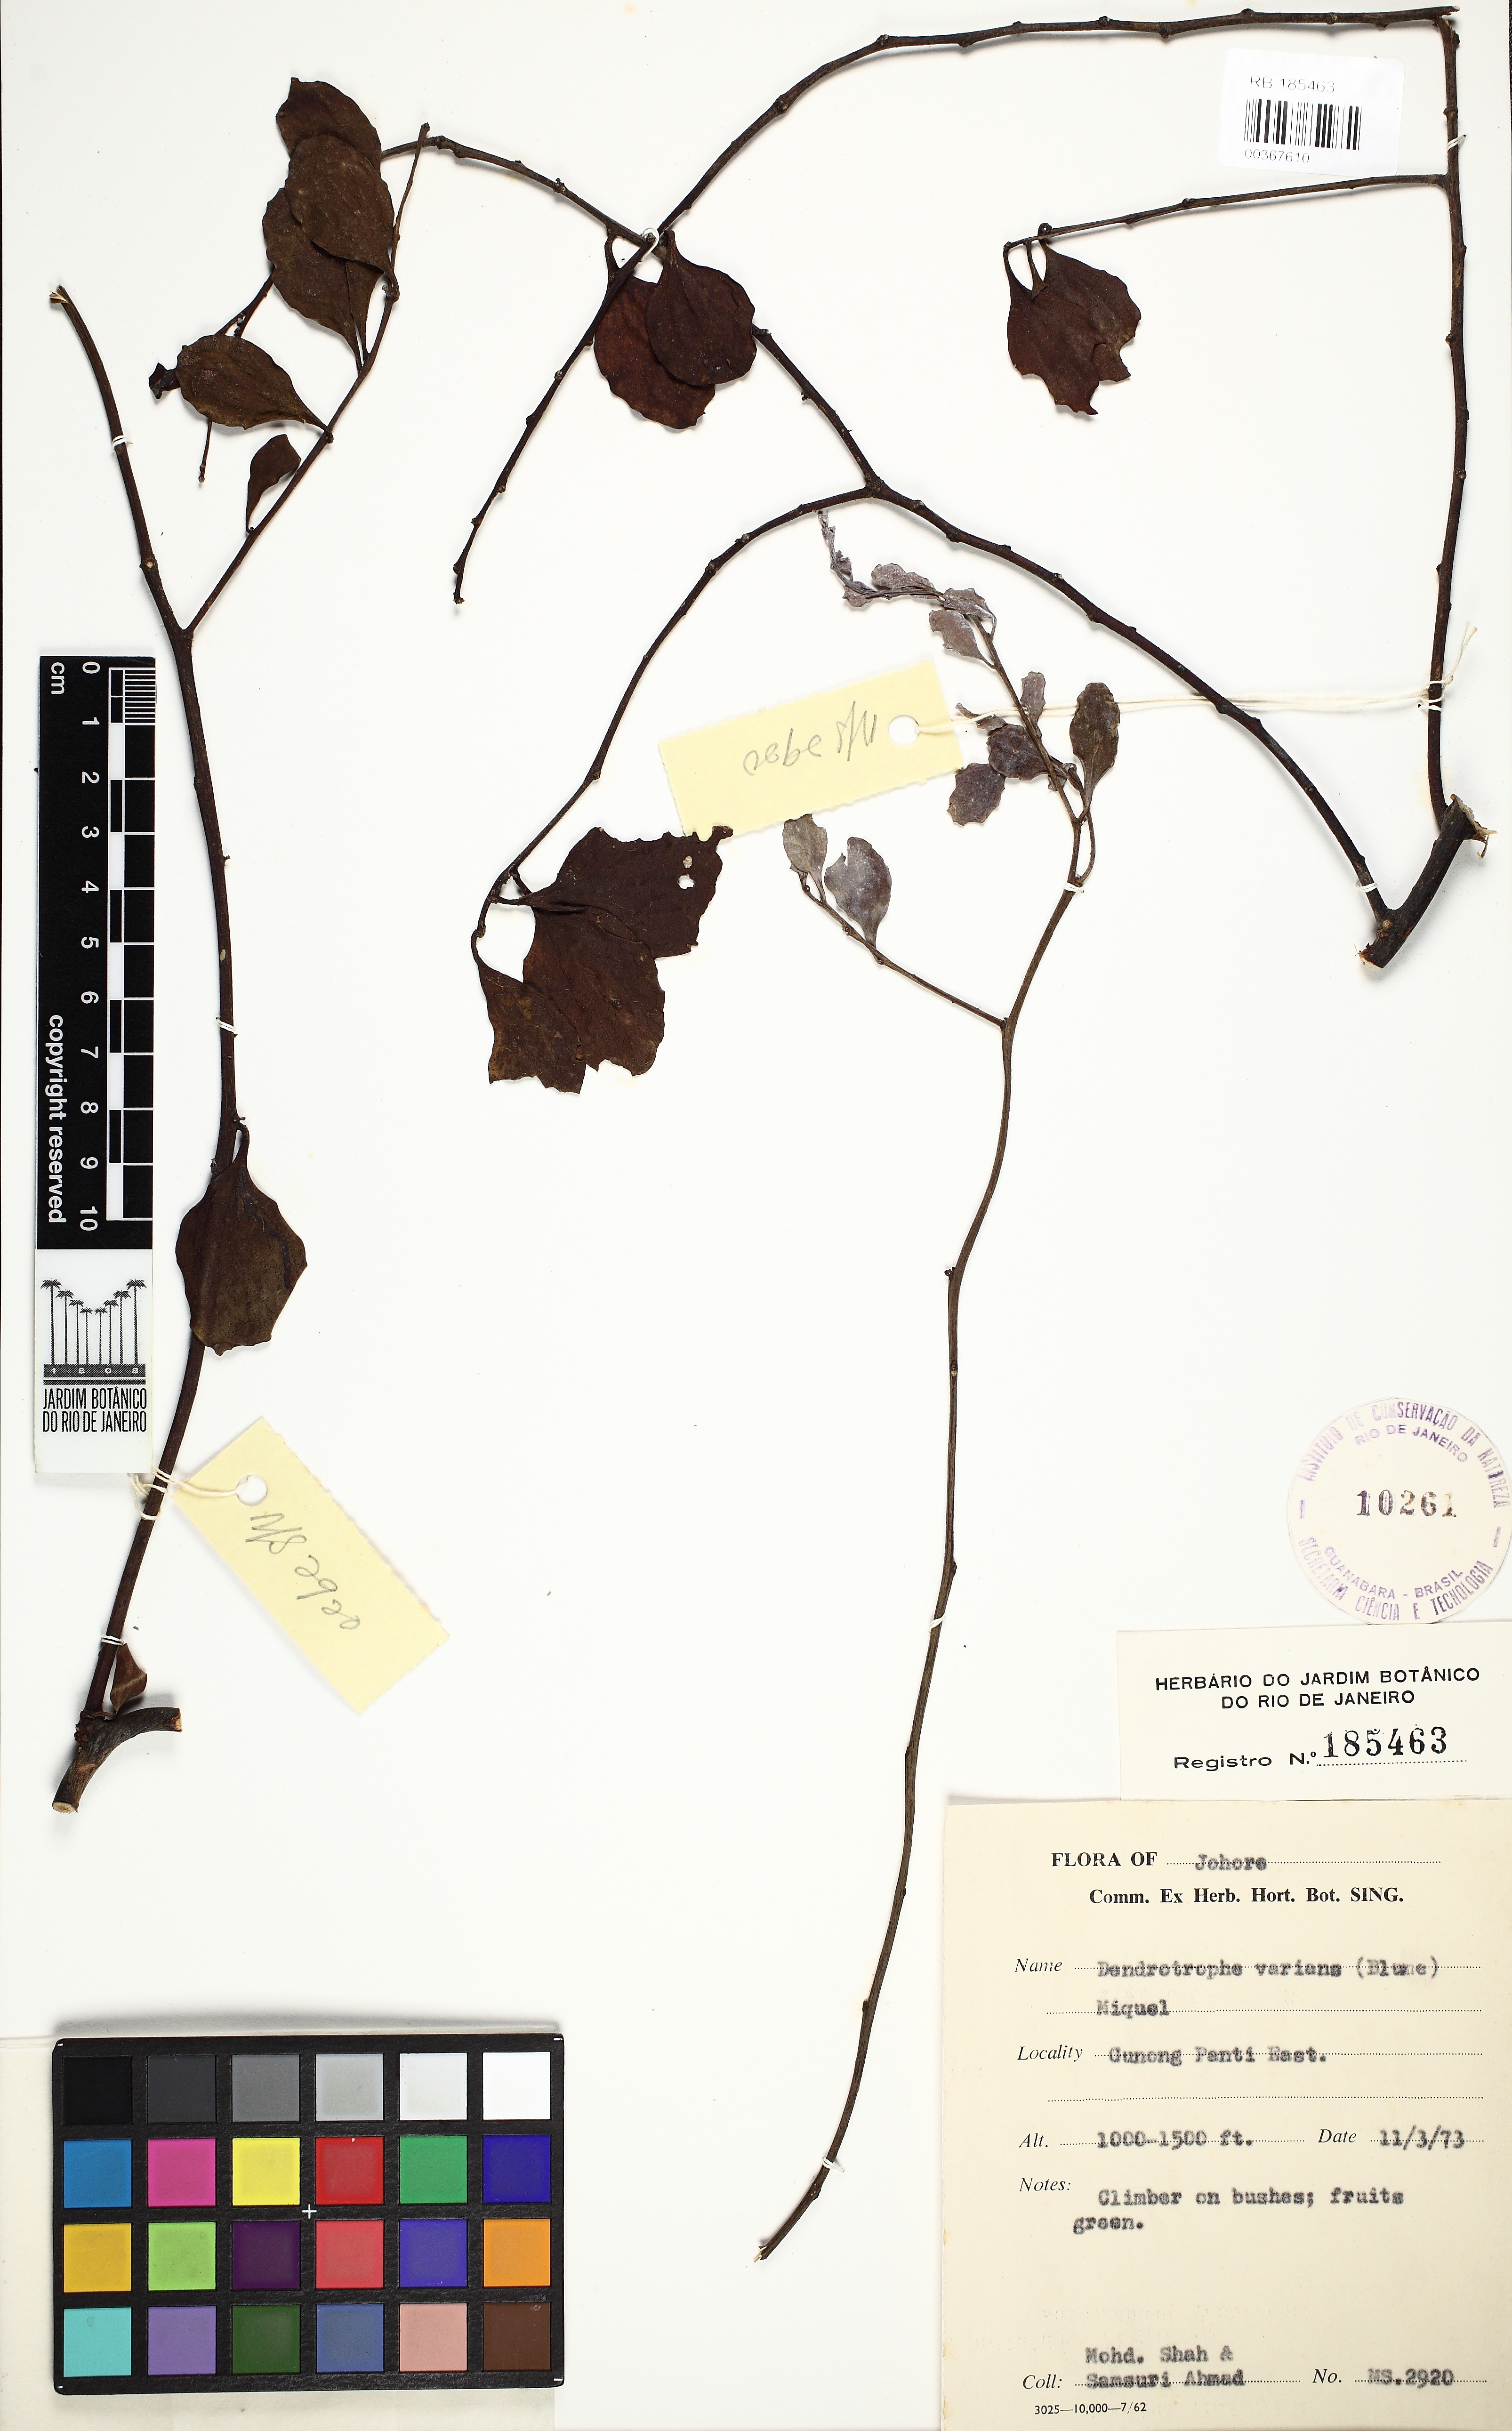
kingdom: Plantae
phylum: Tracheophyta
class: Magnoliopsida
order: Santalales
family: Amphorogynaceae
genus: Dendrotrophe
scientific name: Dendrotrophe varians
